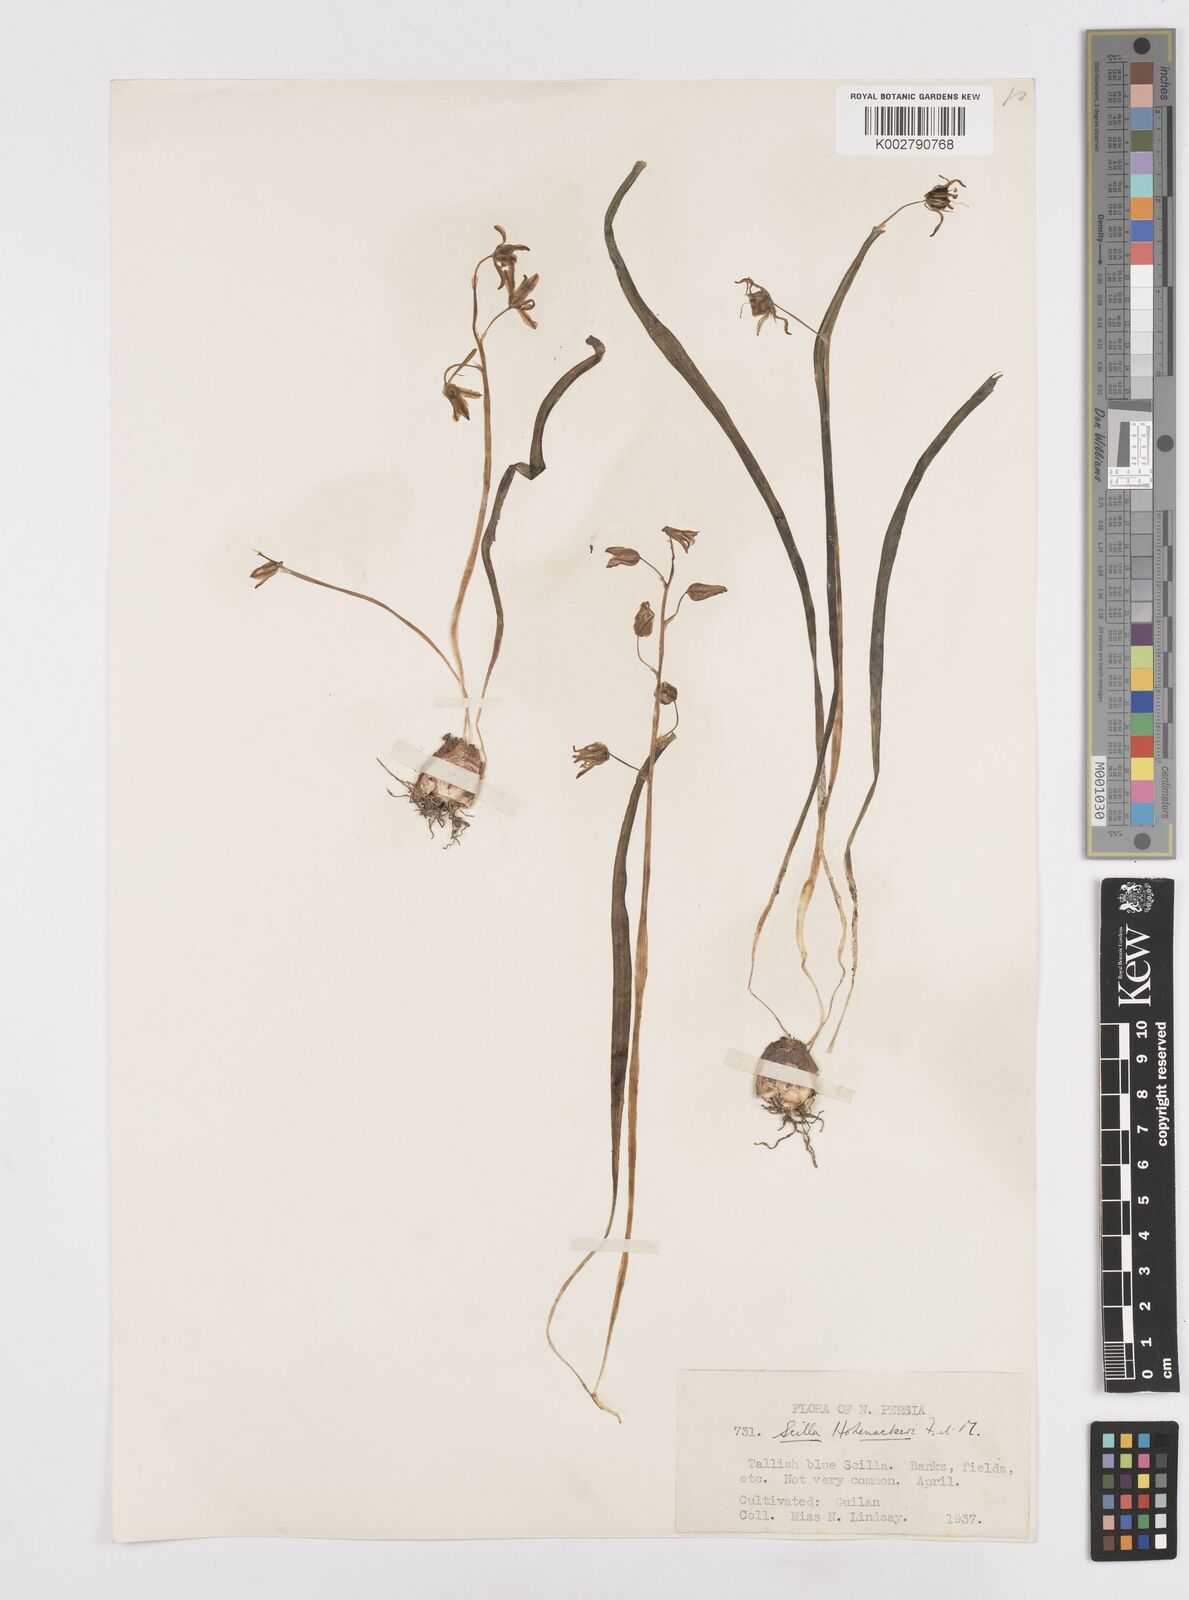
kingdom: Plantae
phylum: Tracheophyta
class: Liliopsida
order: Asparagales
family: Asparagaceae
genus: Fessia
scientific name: Fessia hohenackeri
